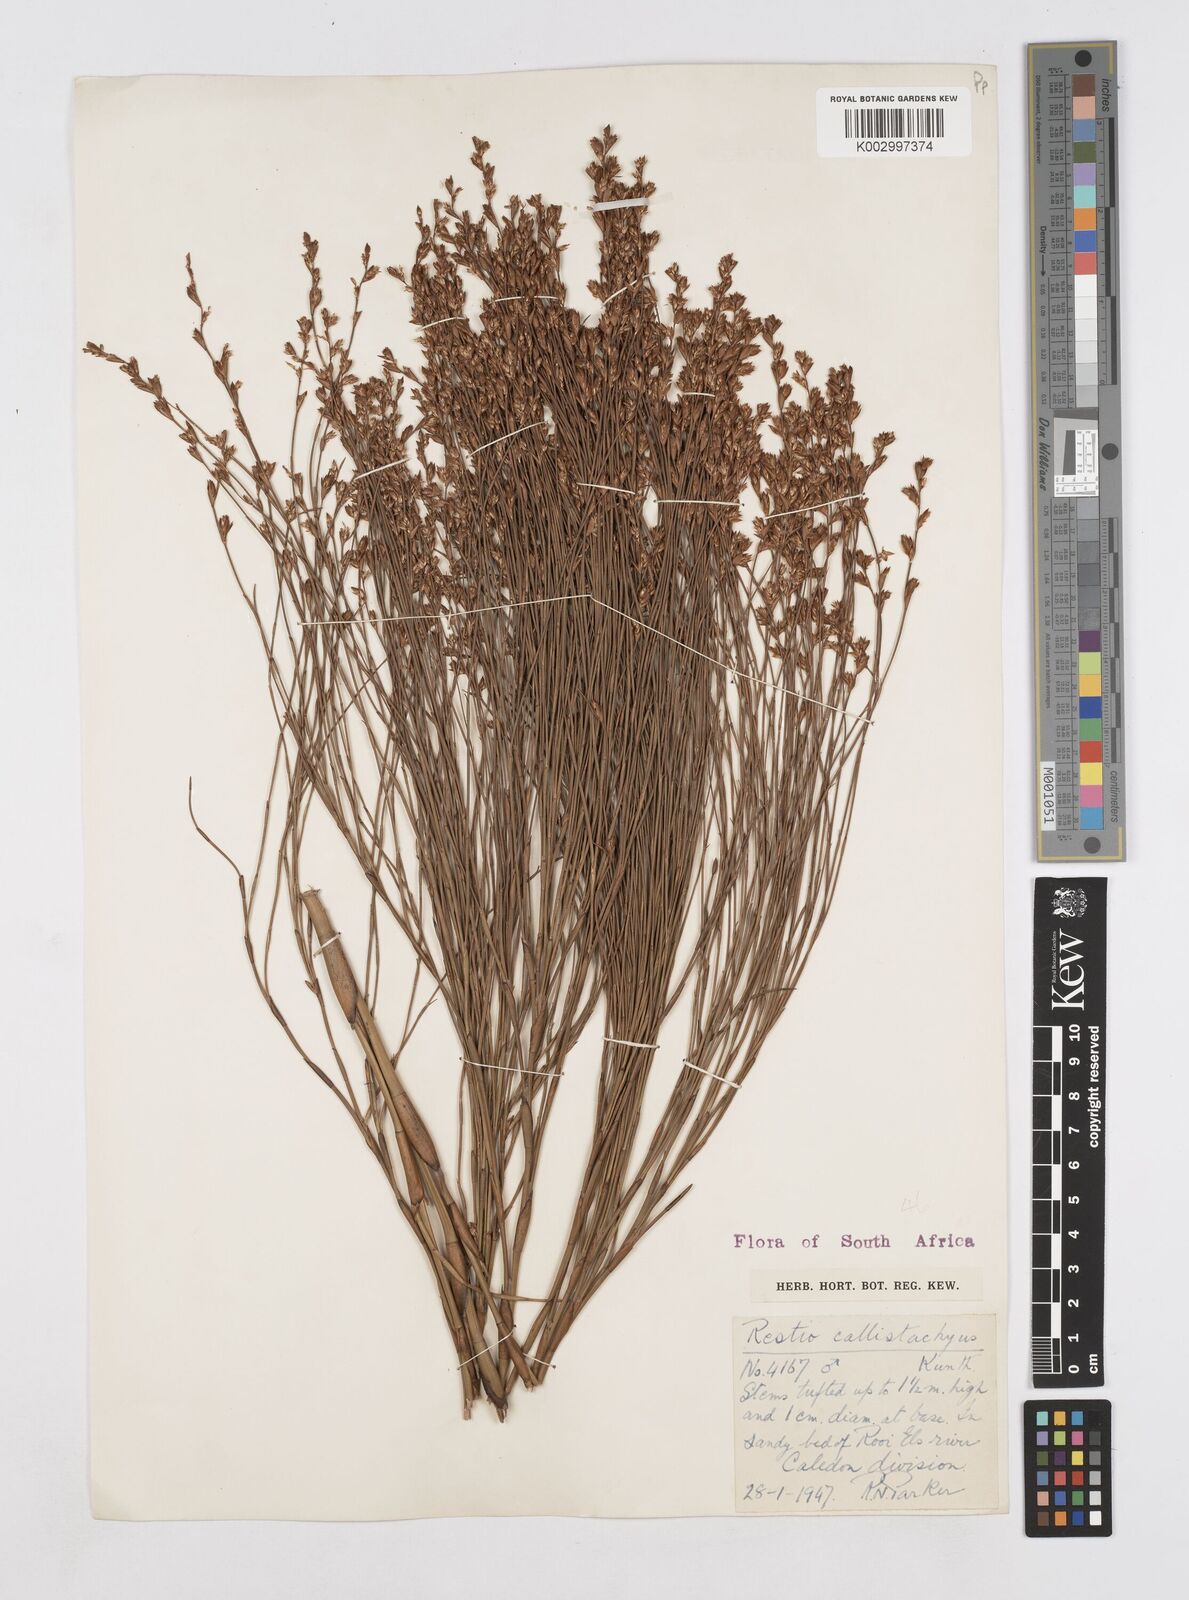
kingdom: Plantae
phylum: Tracheophyta
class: Liliopsida
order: Poales
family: Restionaceae
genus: Platycaulos
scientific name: Platycaulos callistachyus
